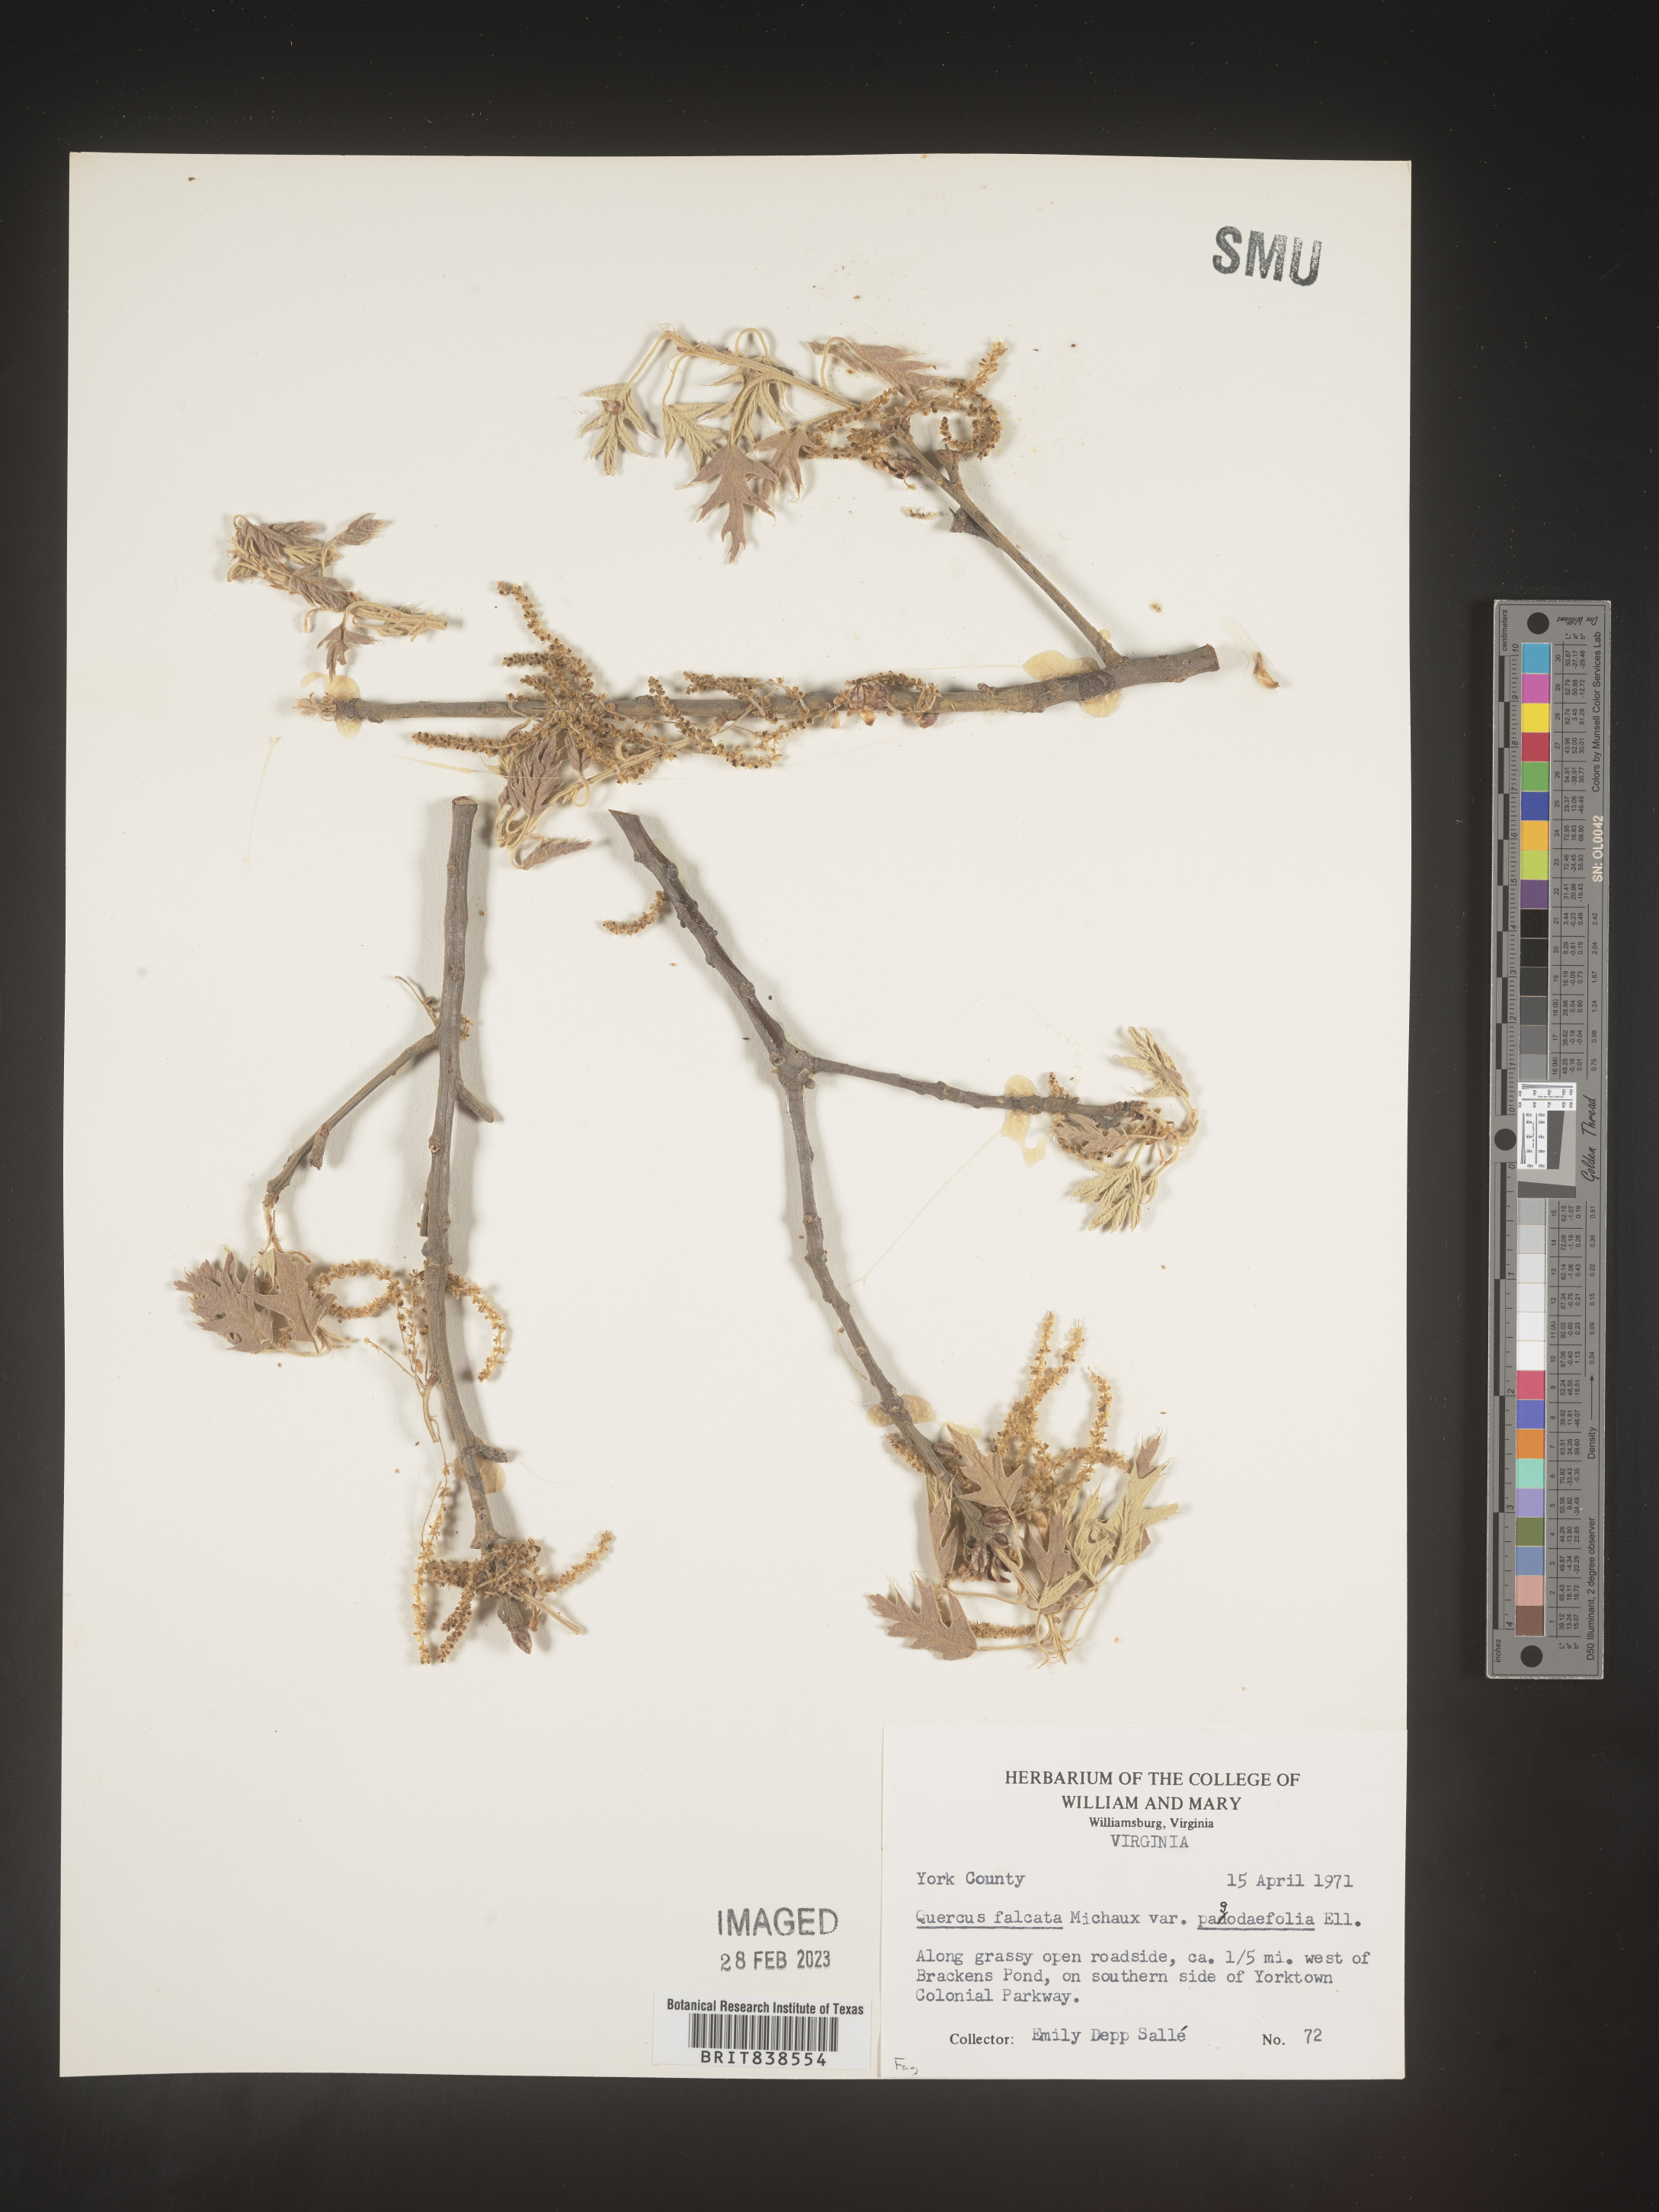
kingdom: Plantae
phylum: Tracheophyta
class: Magnoliopsida
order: Fagales
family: Fagaceae
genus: Quercus
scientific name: Quercus falcata
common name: Southern red oak
